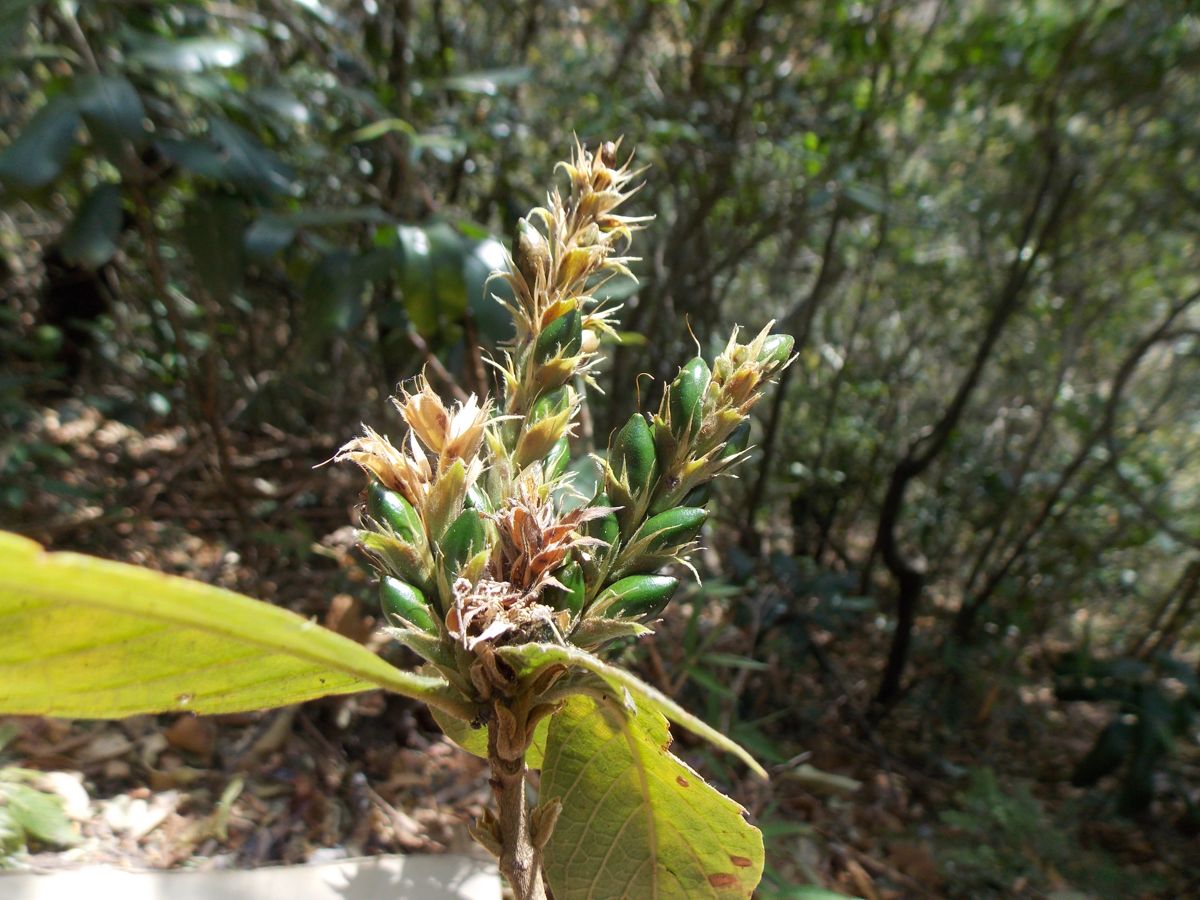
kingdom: Plantae
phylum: Tracheophyta
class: Magnoliopsida
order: Lamiales
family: Acanthaceae
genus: Aphelandra
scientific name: Aphelandra scabra
